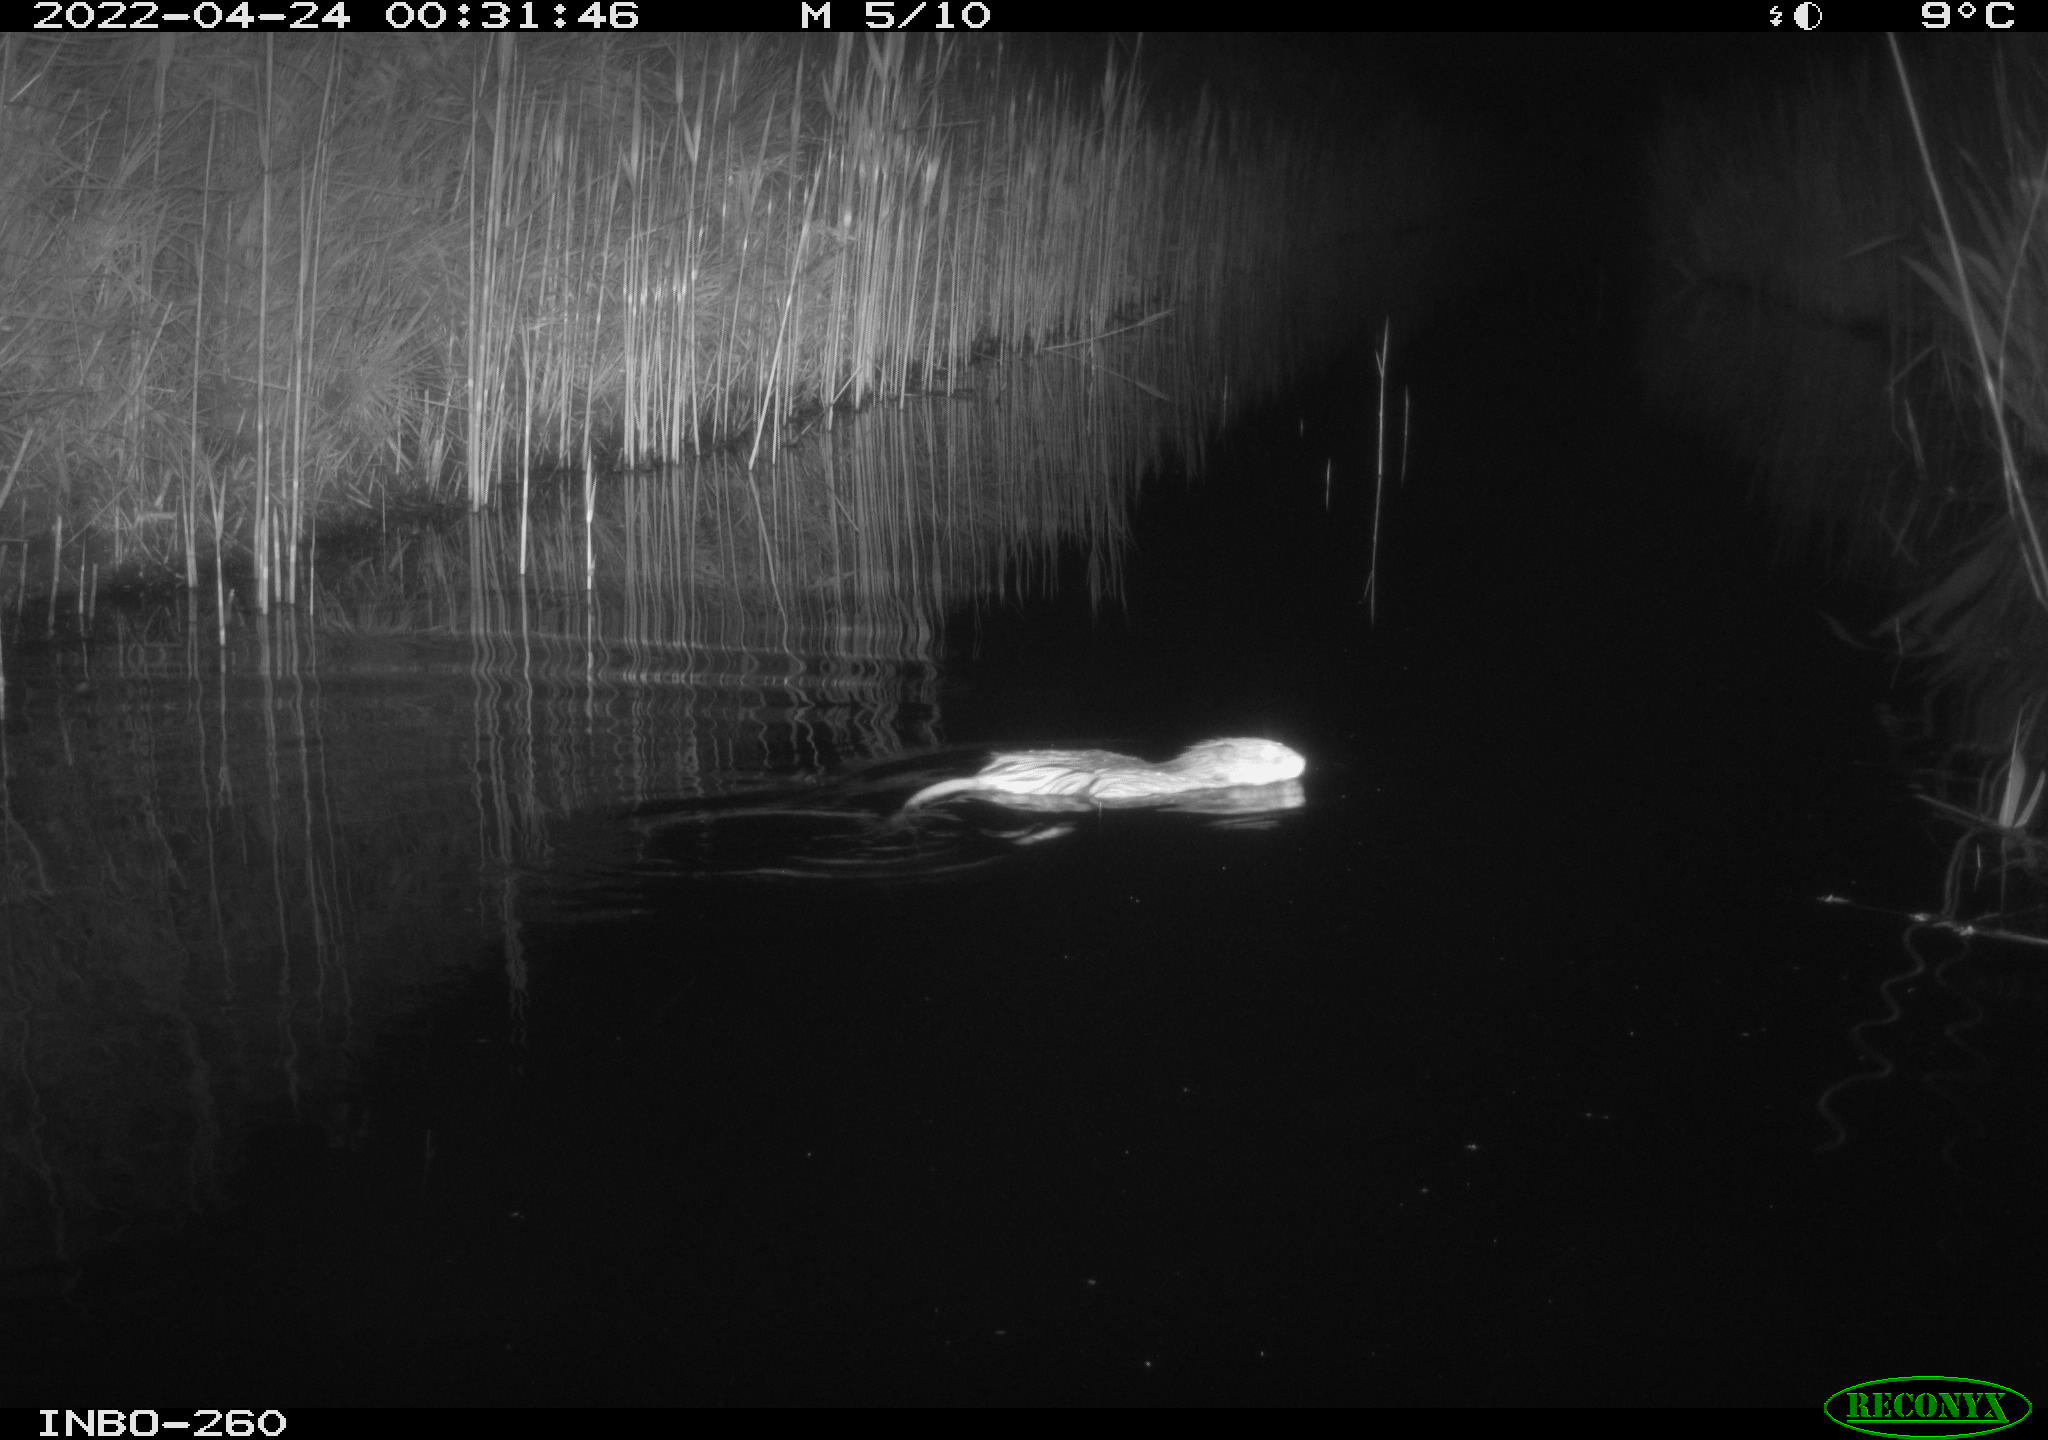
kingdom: Animalia
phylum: Chordata
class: Mammalia
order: Rodentia
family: Cricetidae
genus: Ondatra
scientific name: Ondatra zibethicus
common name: Muskrat
